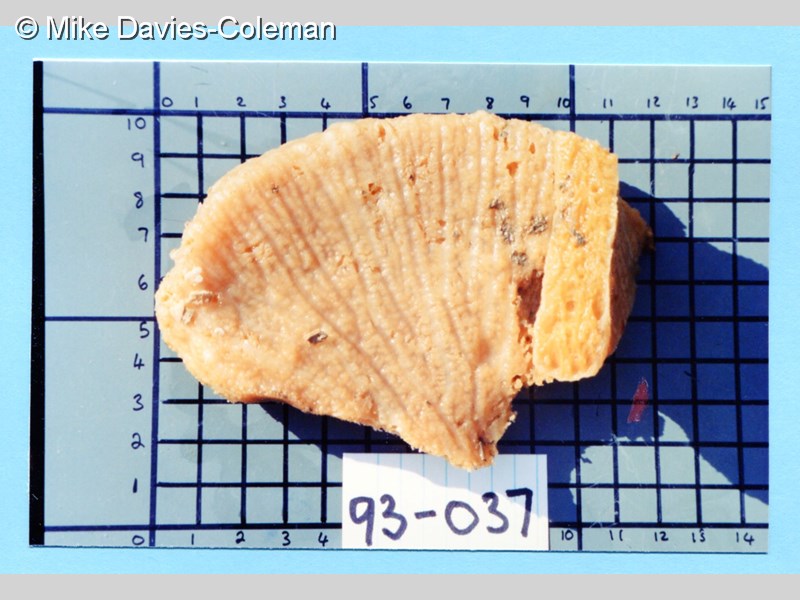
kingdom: Animalia
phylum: Porifera
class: Demospongiae
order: Suberitida
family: Halichondriidae
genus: Hymeniacidon
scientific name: Hymeniacidon
